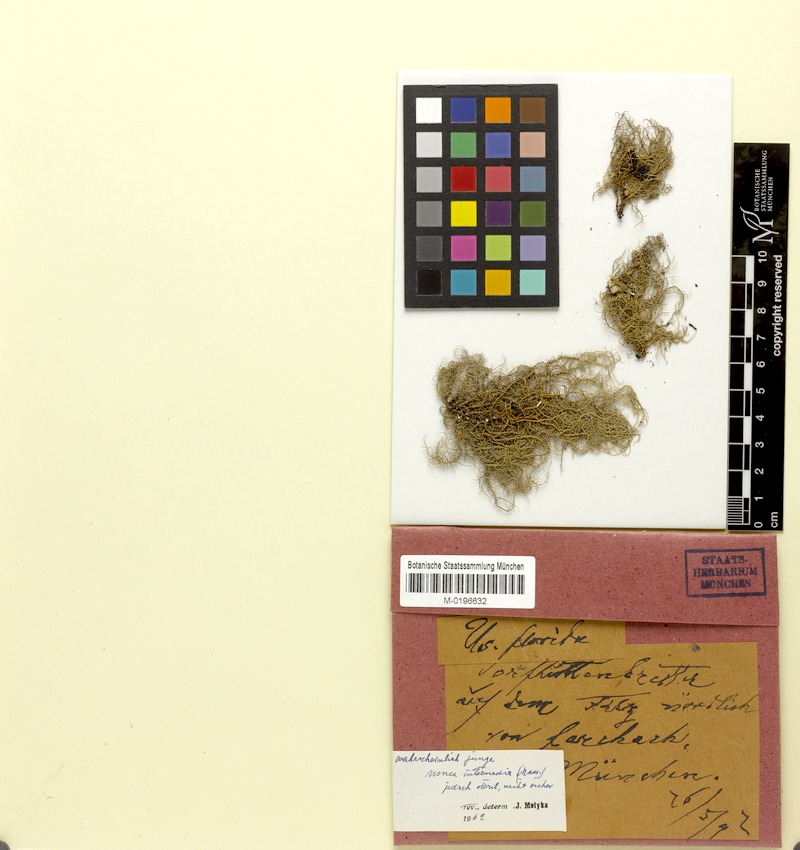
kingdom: Fungi
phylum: Ascomycota
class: Lecanoromycetes
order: Lecanorales
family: Parmeliaceae
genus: Usnea
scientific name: Usnea intermedia
